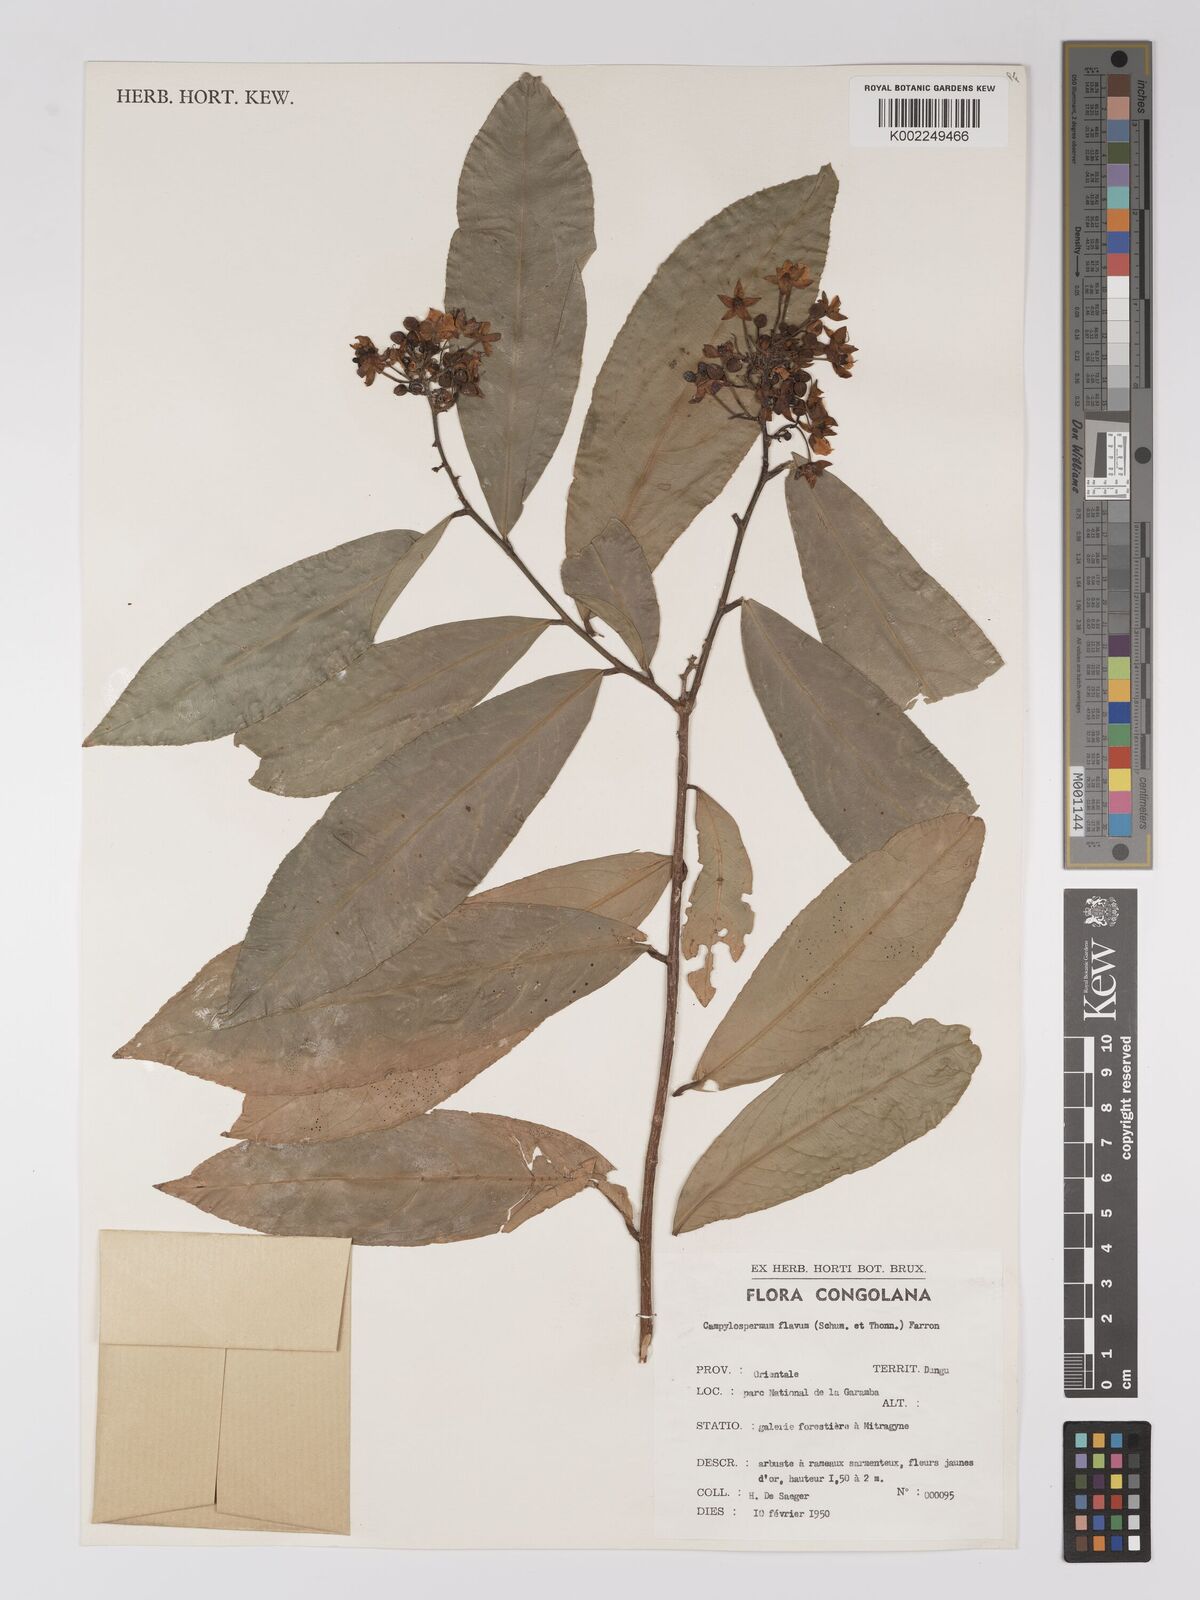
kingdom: Plantae
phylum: Tracheophyta
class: Magnoliopsida
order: Malpighiales
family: Ochnaceae
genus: Campylospermum
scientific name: Campylospermum flavum
